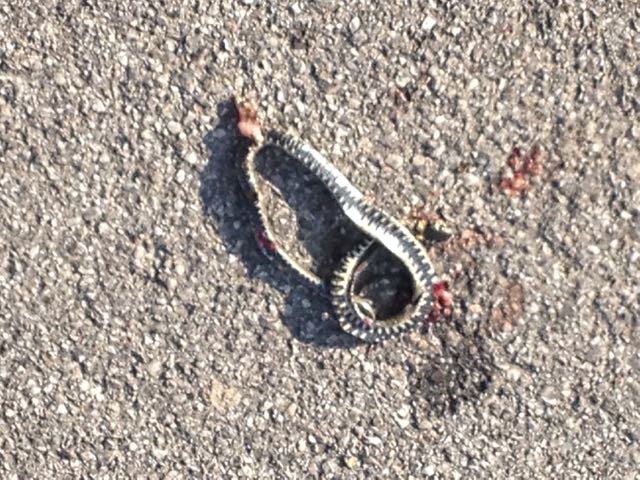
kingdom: Animalia
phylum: Chordata
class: Squamata
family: Colubridae
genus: Natrix
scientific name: Natrix natrix
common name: Grass snake
